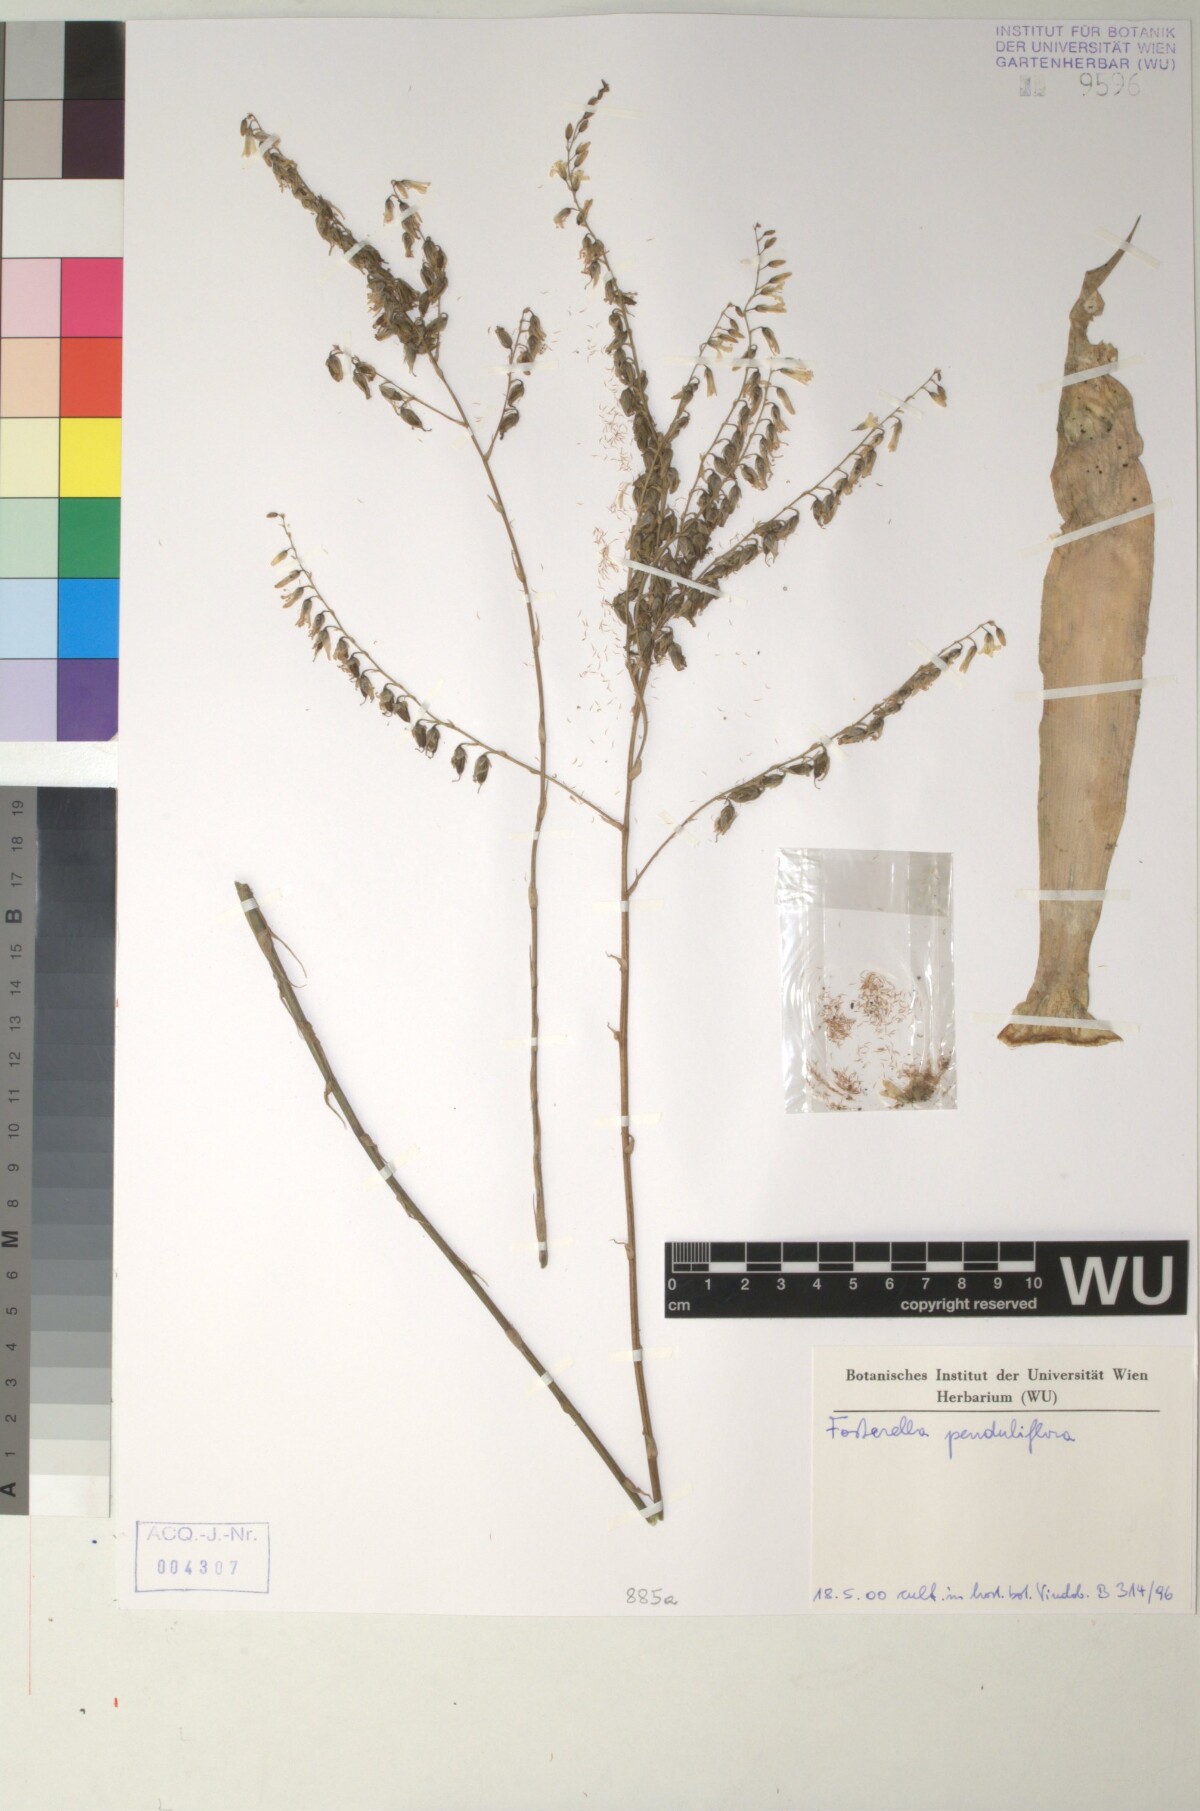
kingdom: Plantae
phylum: Tracheophyta
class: Liliopsida
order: Poales
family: Bromeliaceae
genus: Fosterella
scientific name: Fosterella penduliflora
